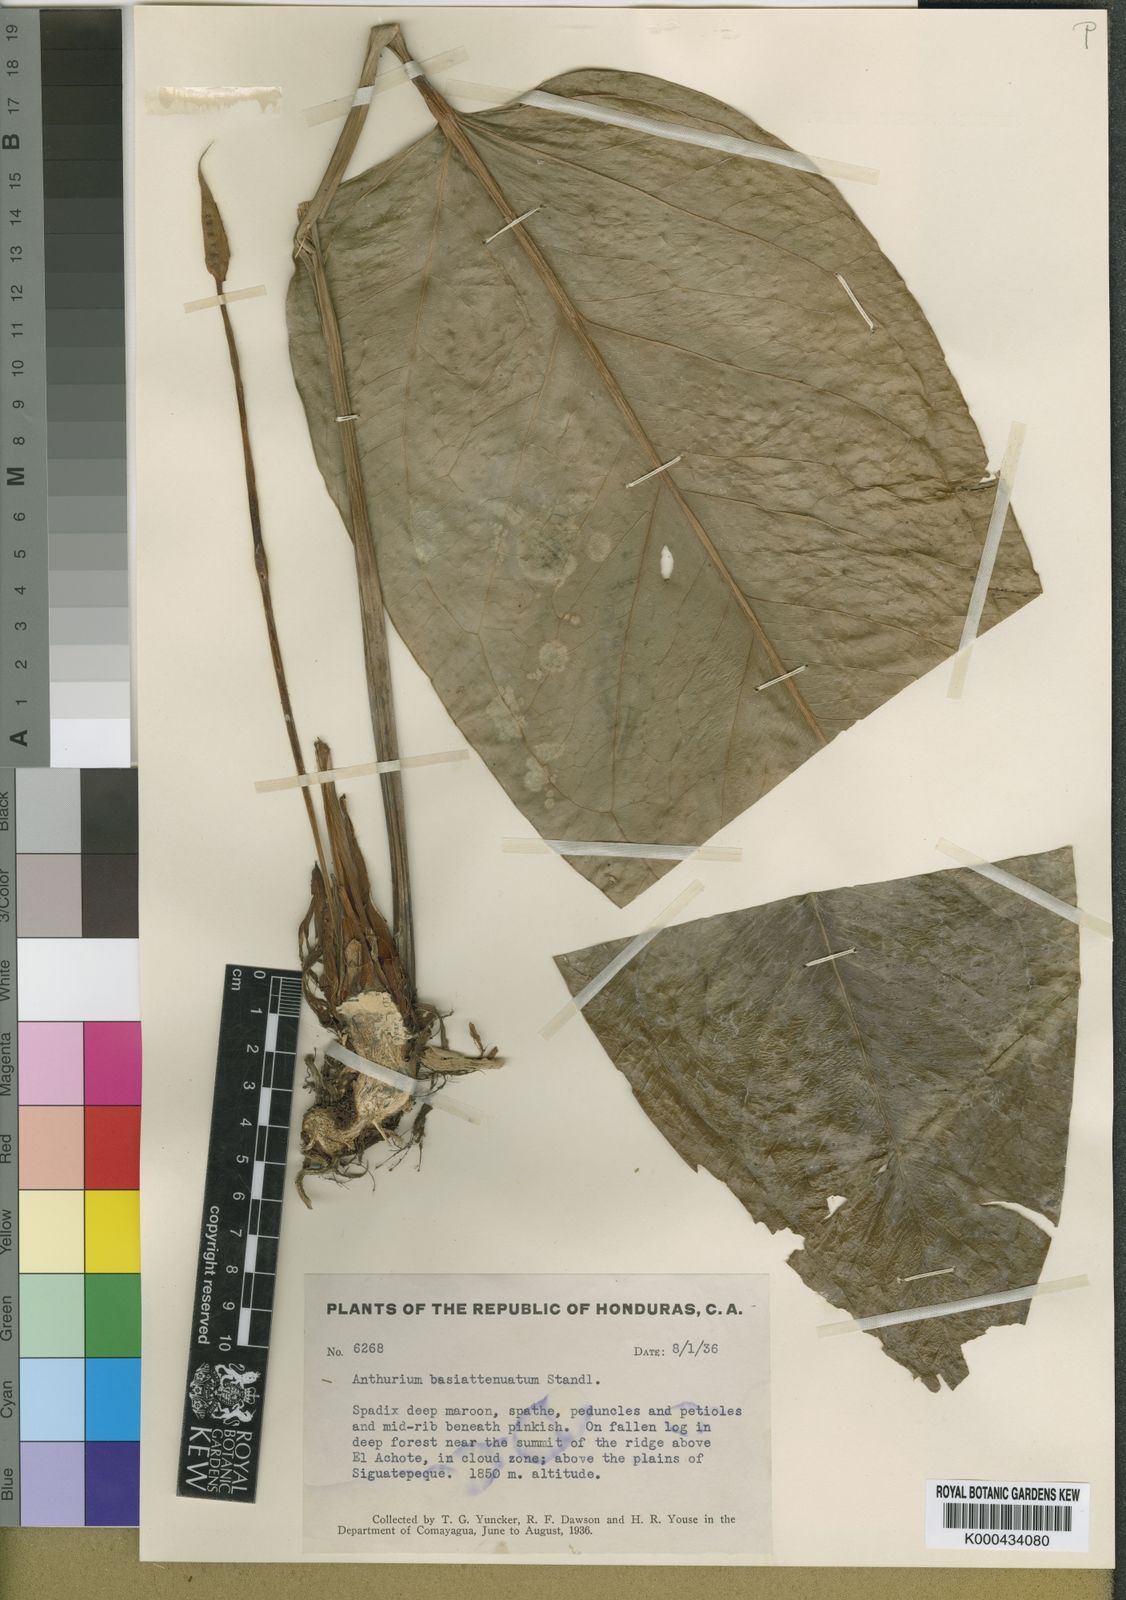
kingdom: Plantae
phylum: Tracheophyta
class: Liliopsida
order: Alismatales
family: Araceae
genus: Anthurium
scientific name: Anthurium subcordatum
